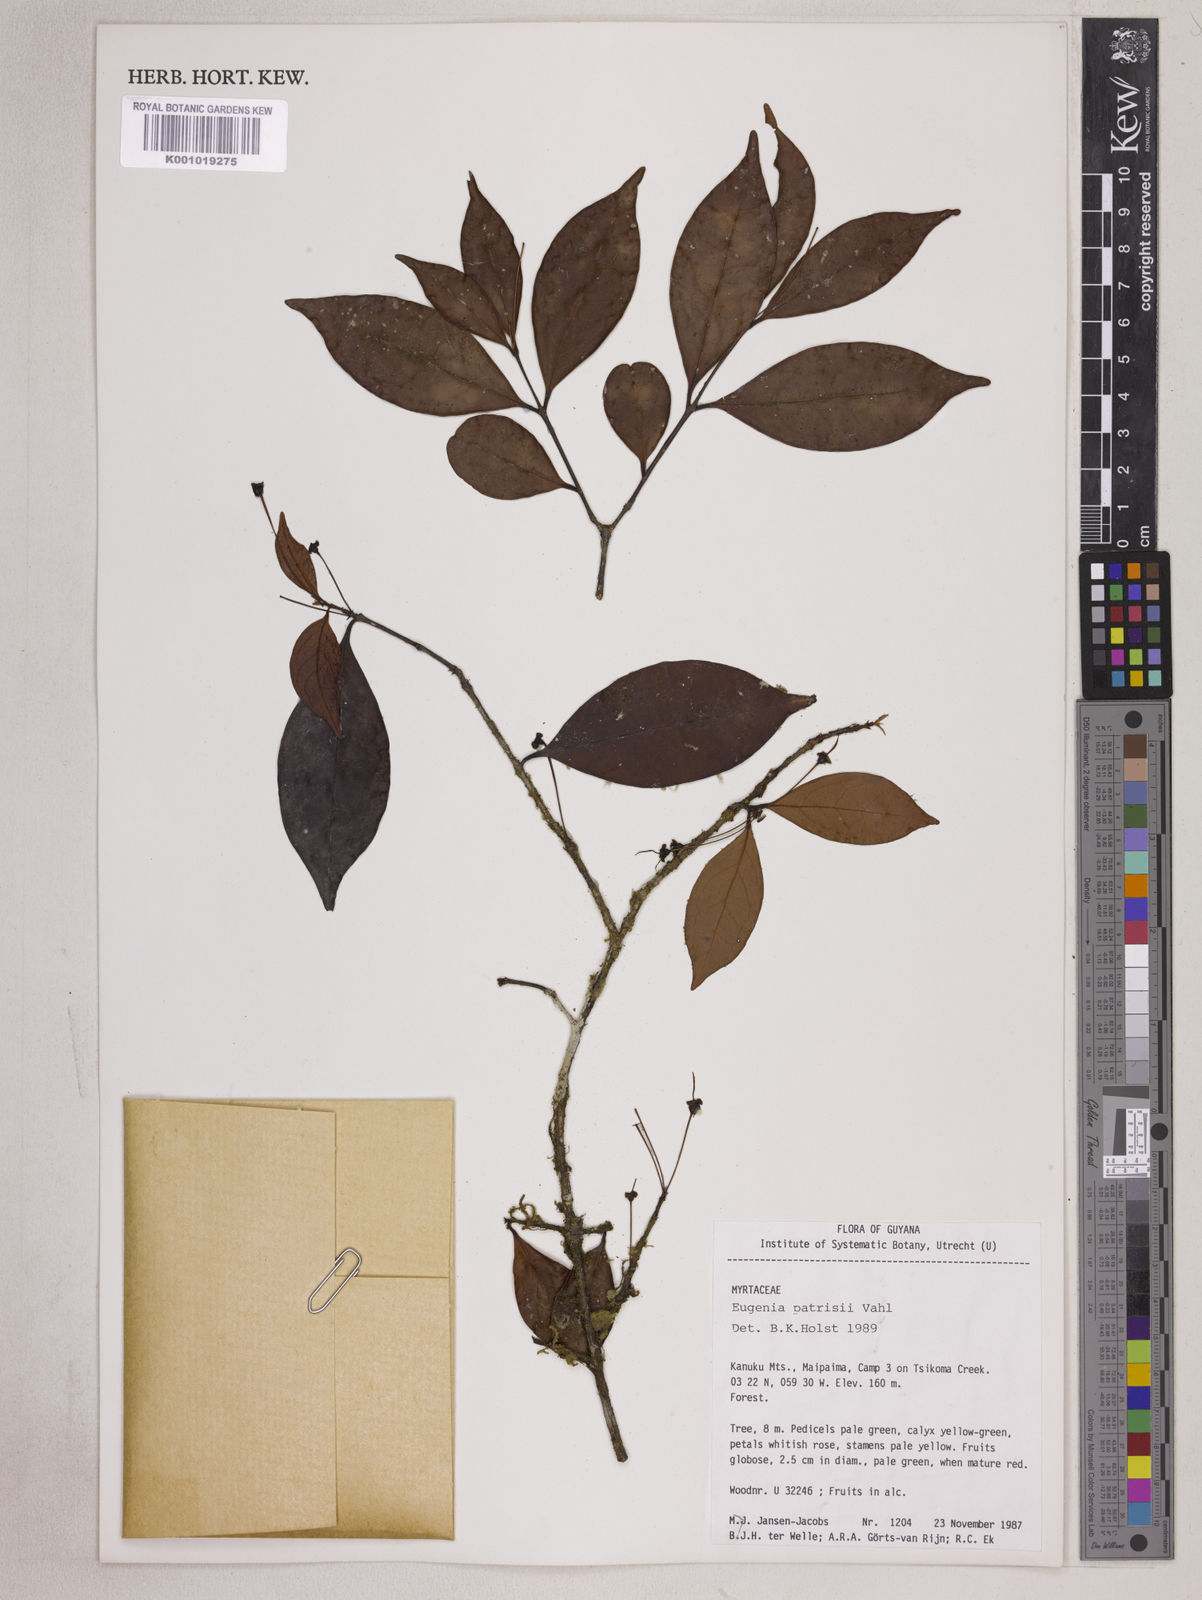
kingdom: Plantae
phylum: Tracheophyta
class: Magnoliopsida
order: Myrtales
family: Myrtaceae
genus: Eugenia
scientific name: Eugenia patrisii
